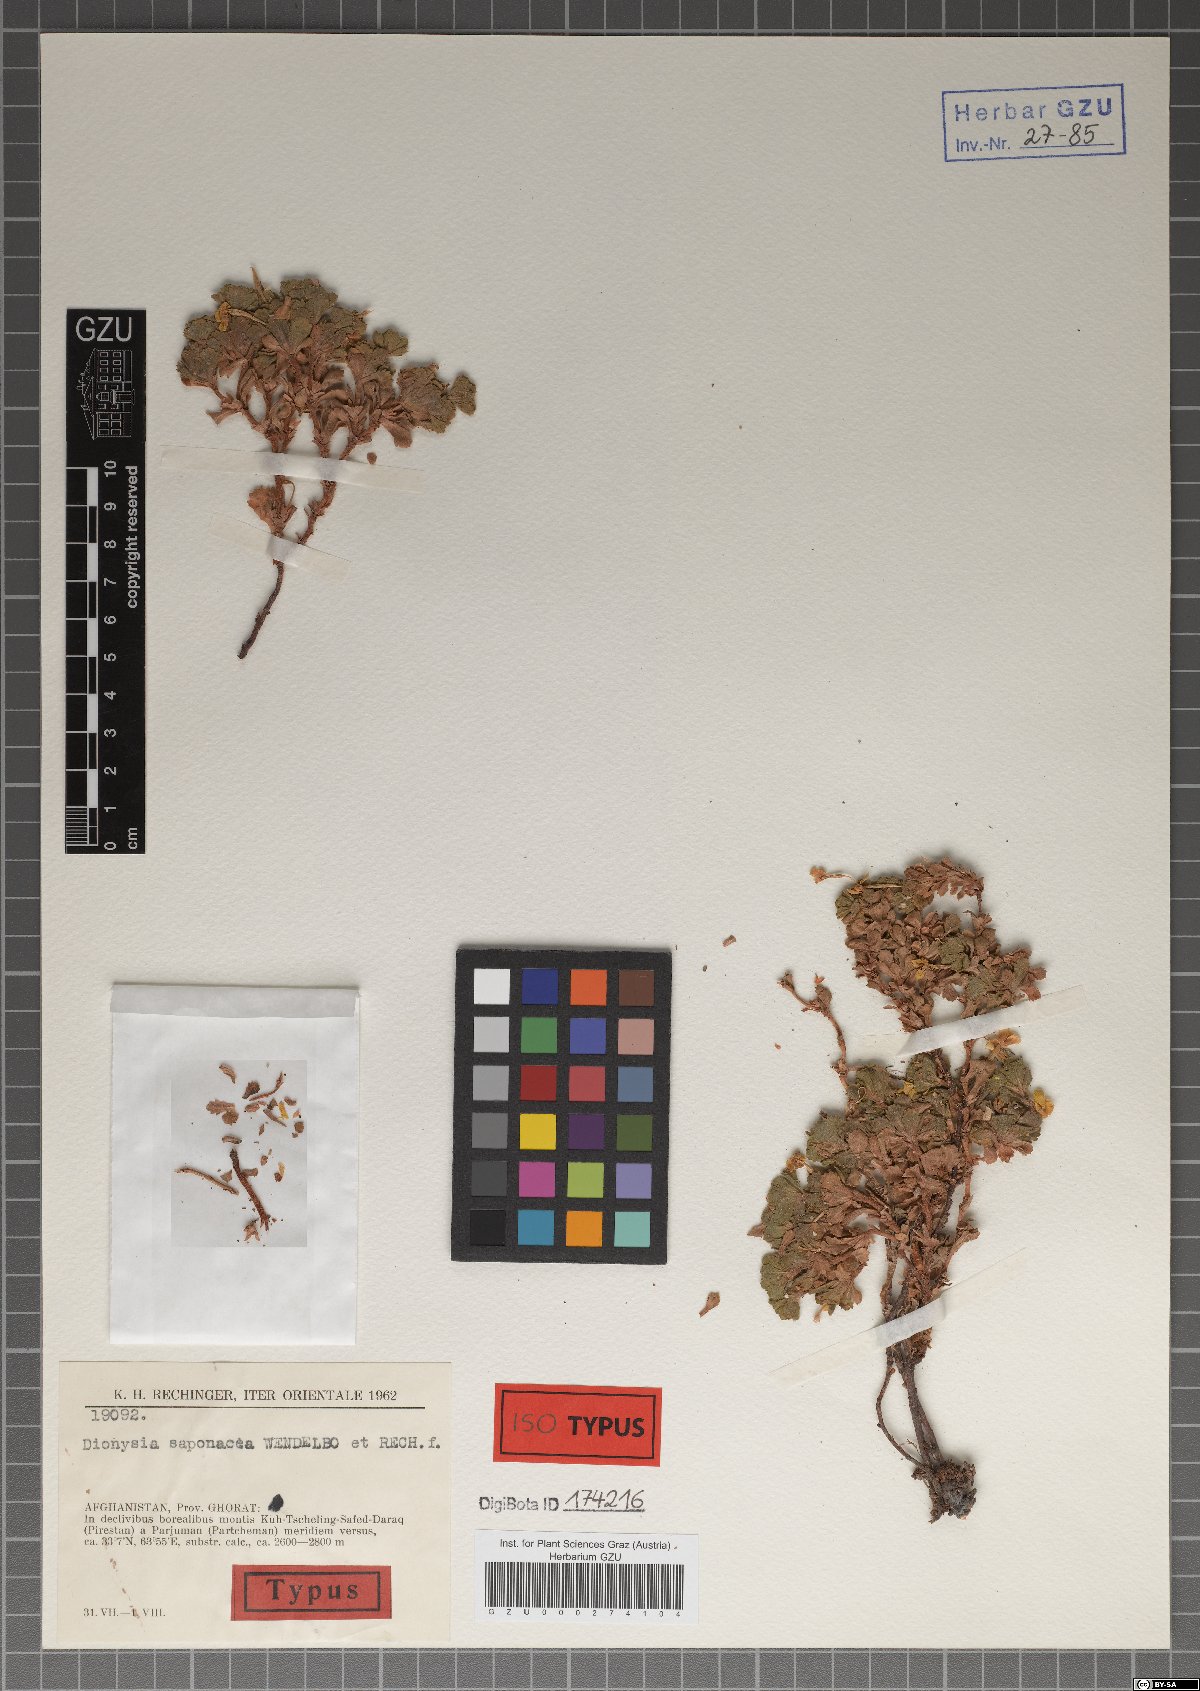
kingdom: Plantae
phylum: Tracheophyta
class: Magnoliopsida
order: Ericales
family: Primulaceae
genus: Dionysia
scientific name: Dionysia saponacea
